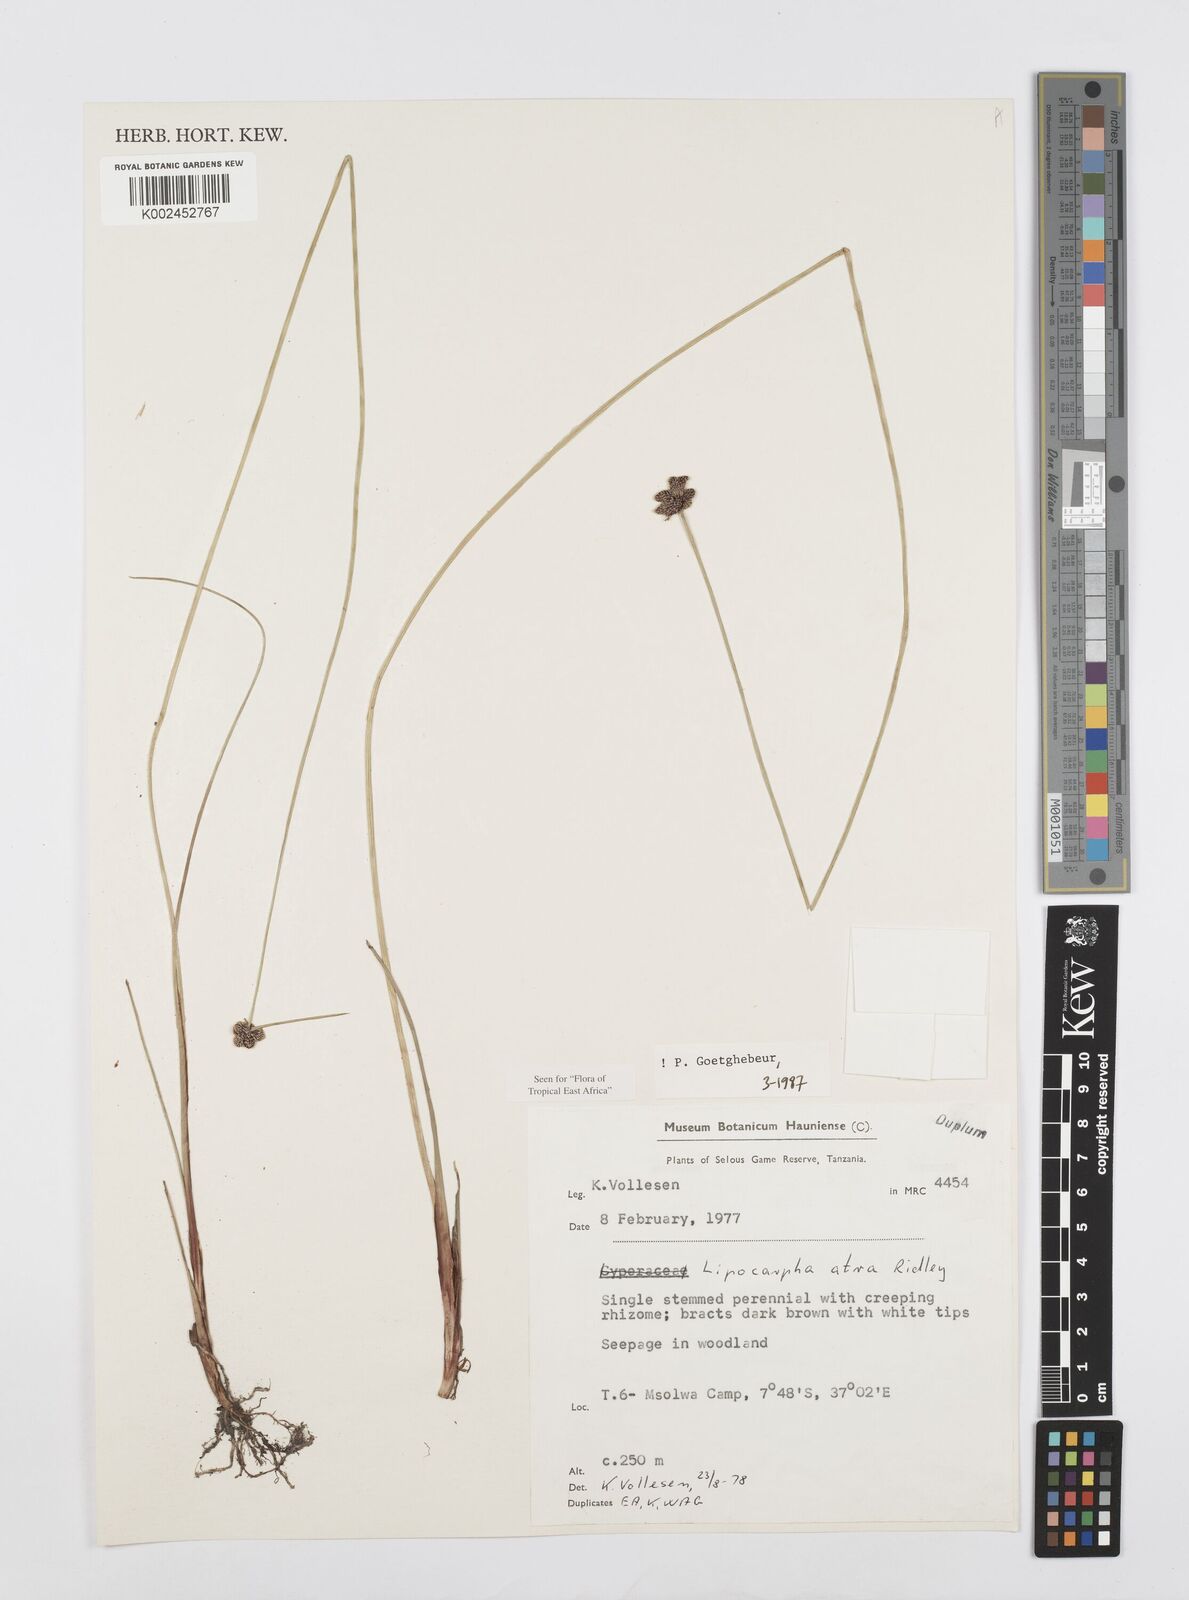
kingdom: Plantae
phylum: Tracheophyta
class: Liliopsida
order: Poales
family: Cyperaceae
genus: Cyperus
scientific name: Cyperus lipoater
